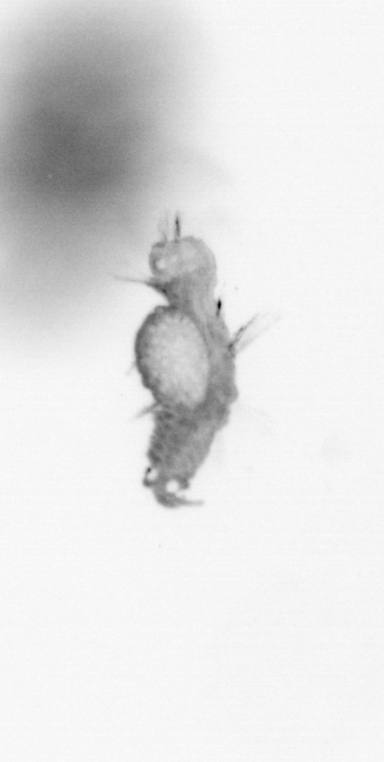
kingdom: Animalia
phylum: Annelida
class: Polychaeta
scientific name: Polychaeta
